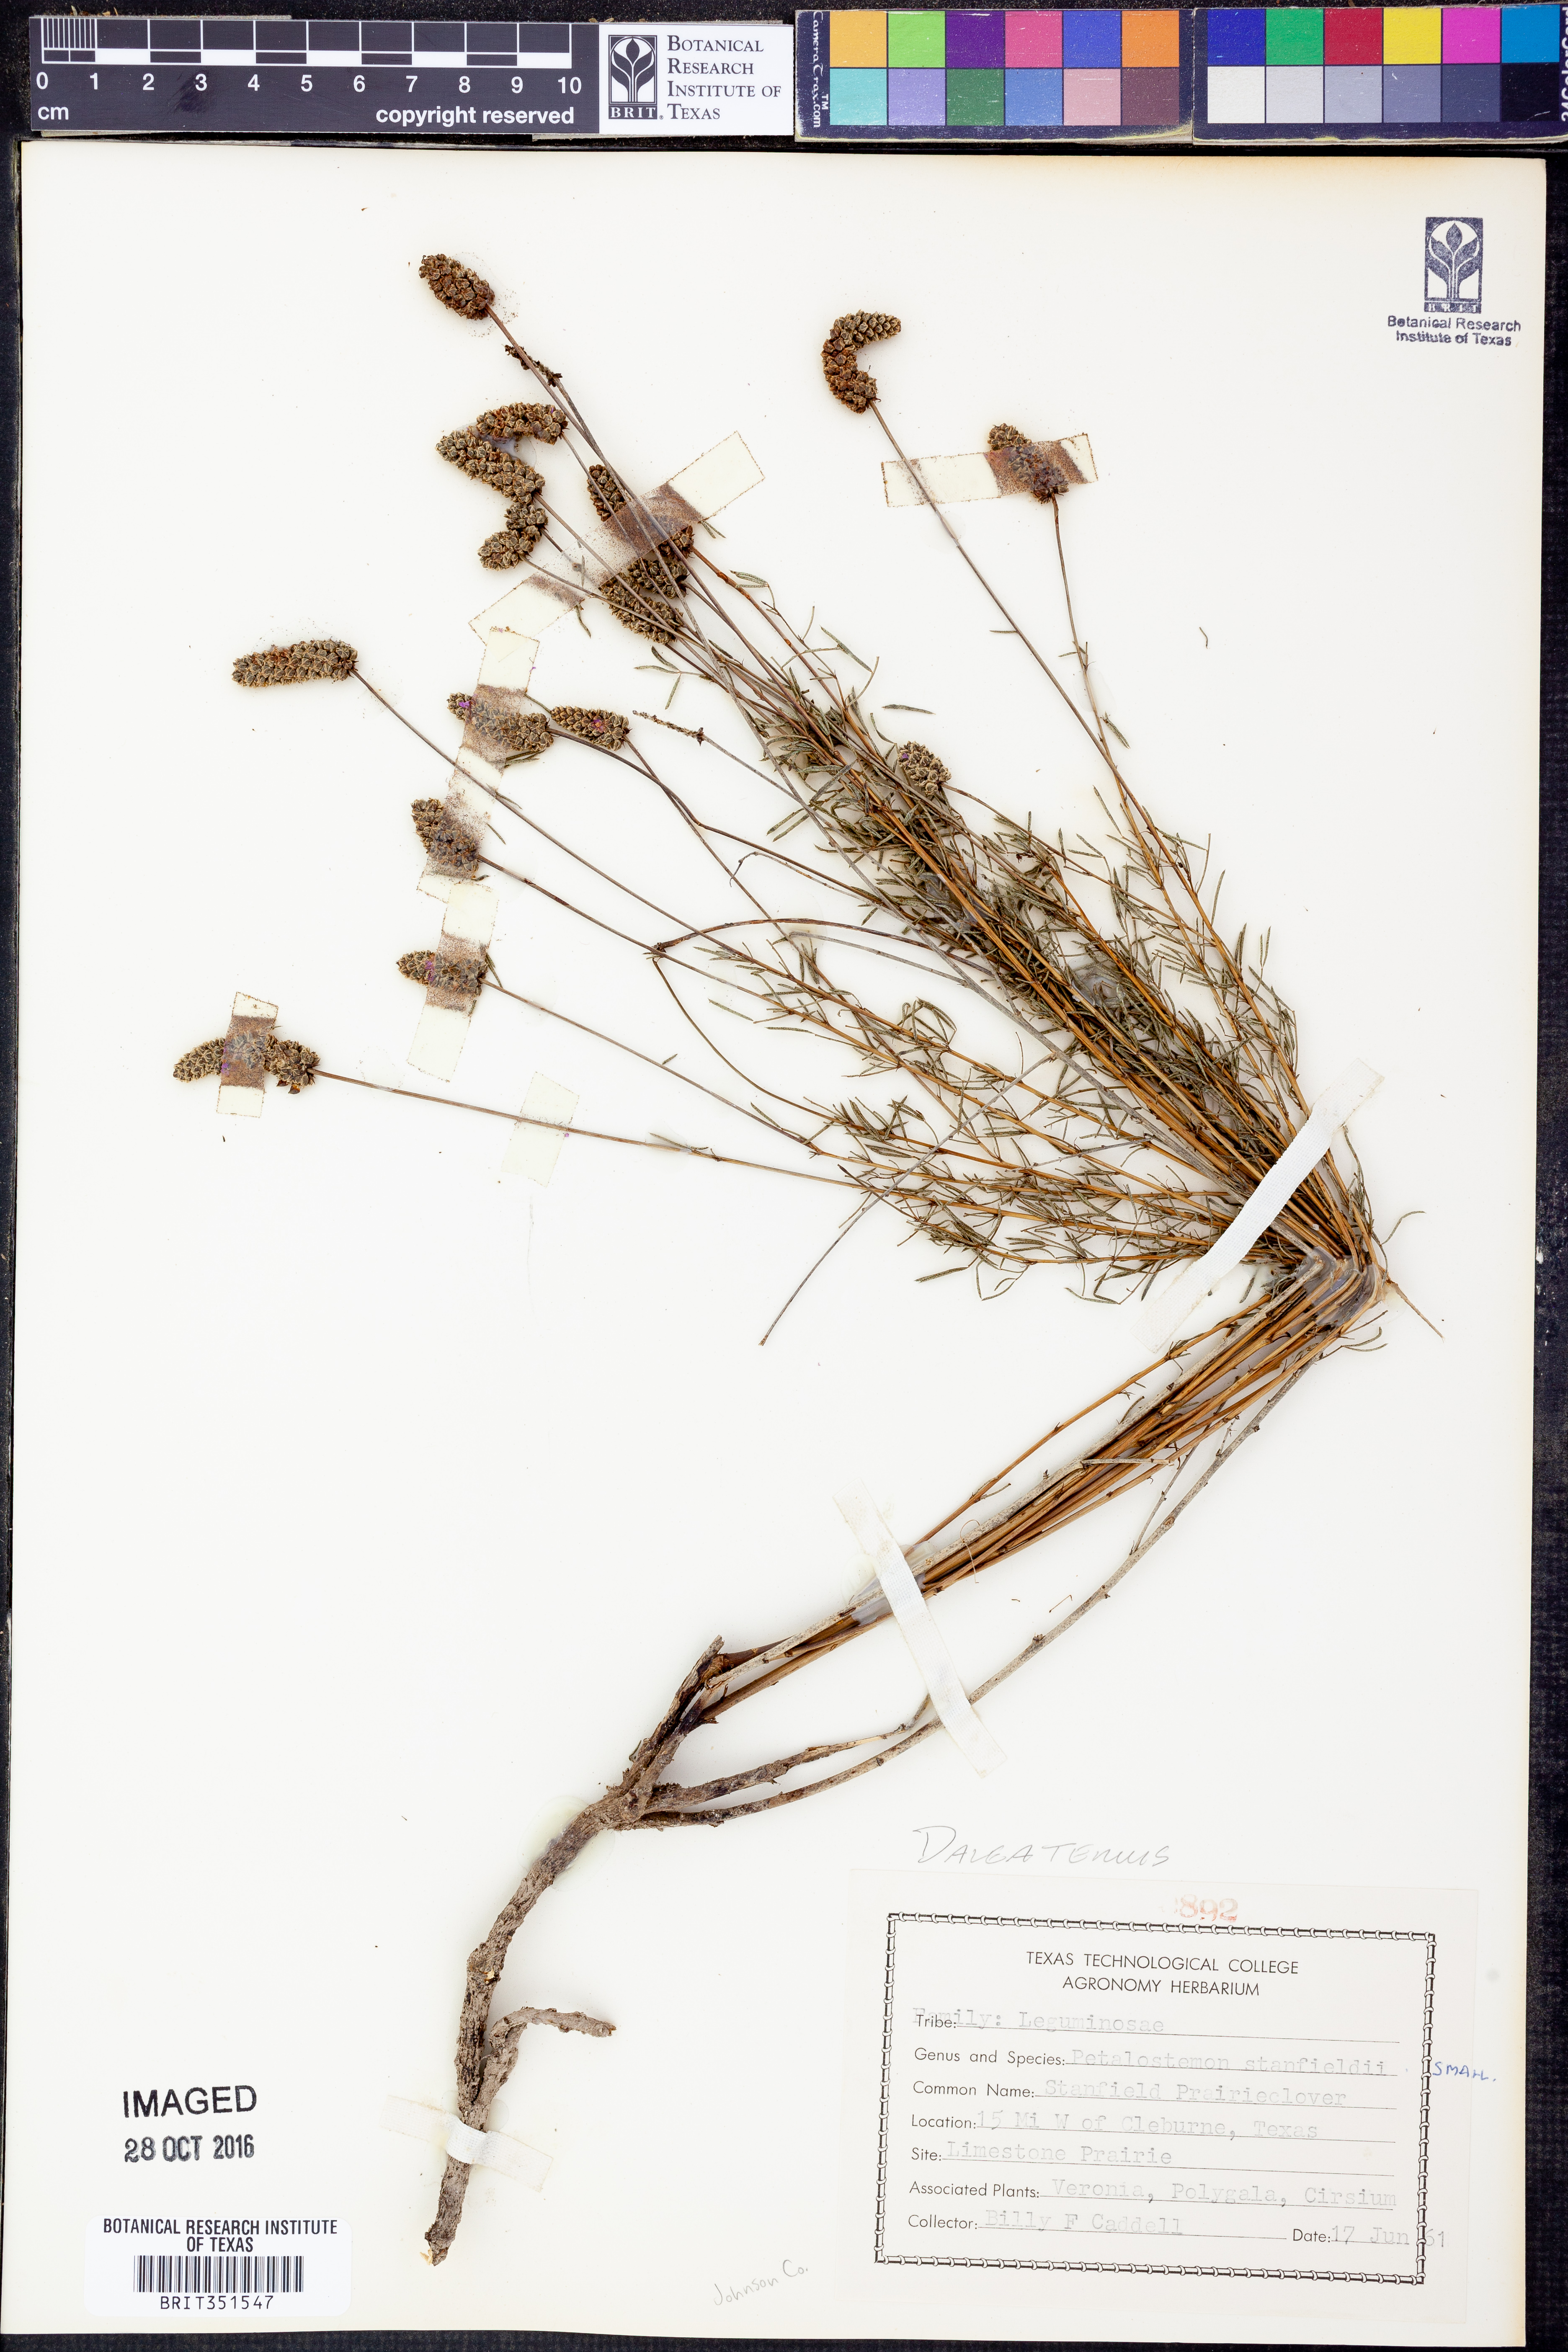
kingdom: Plantae
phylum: Tracheophyta
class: Magnoliopsida
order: Fabales
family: Fabaceae
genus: Dalea
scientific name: Dalea tenuis
